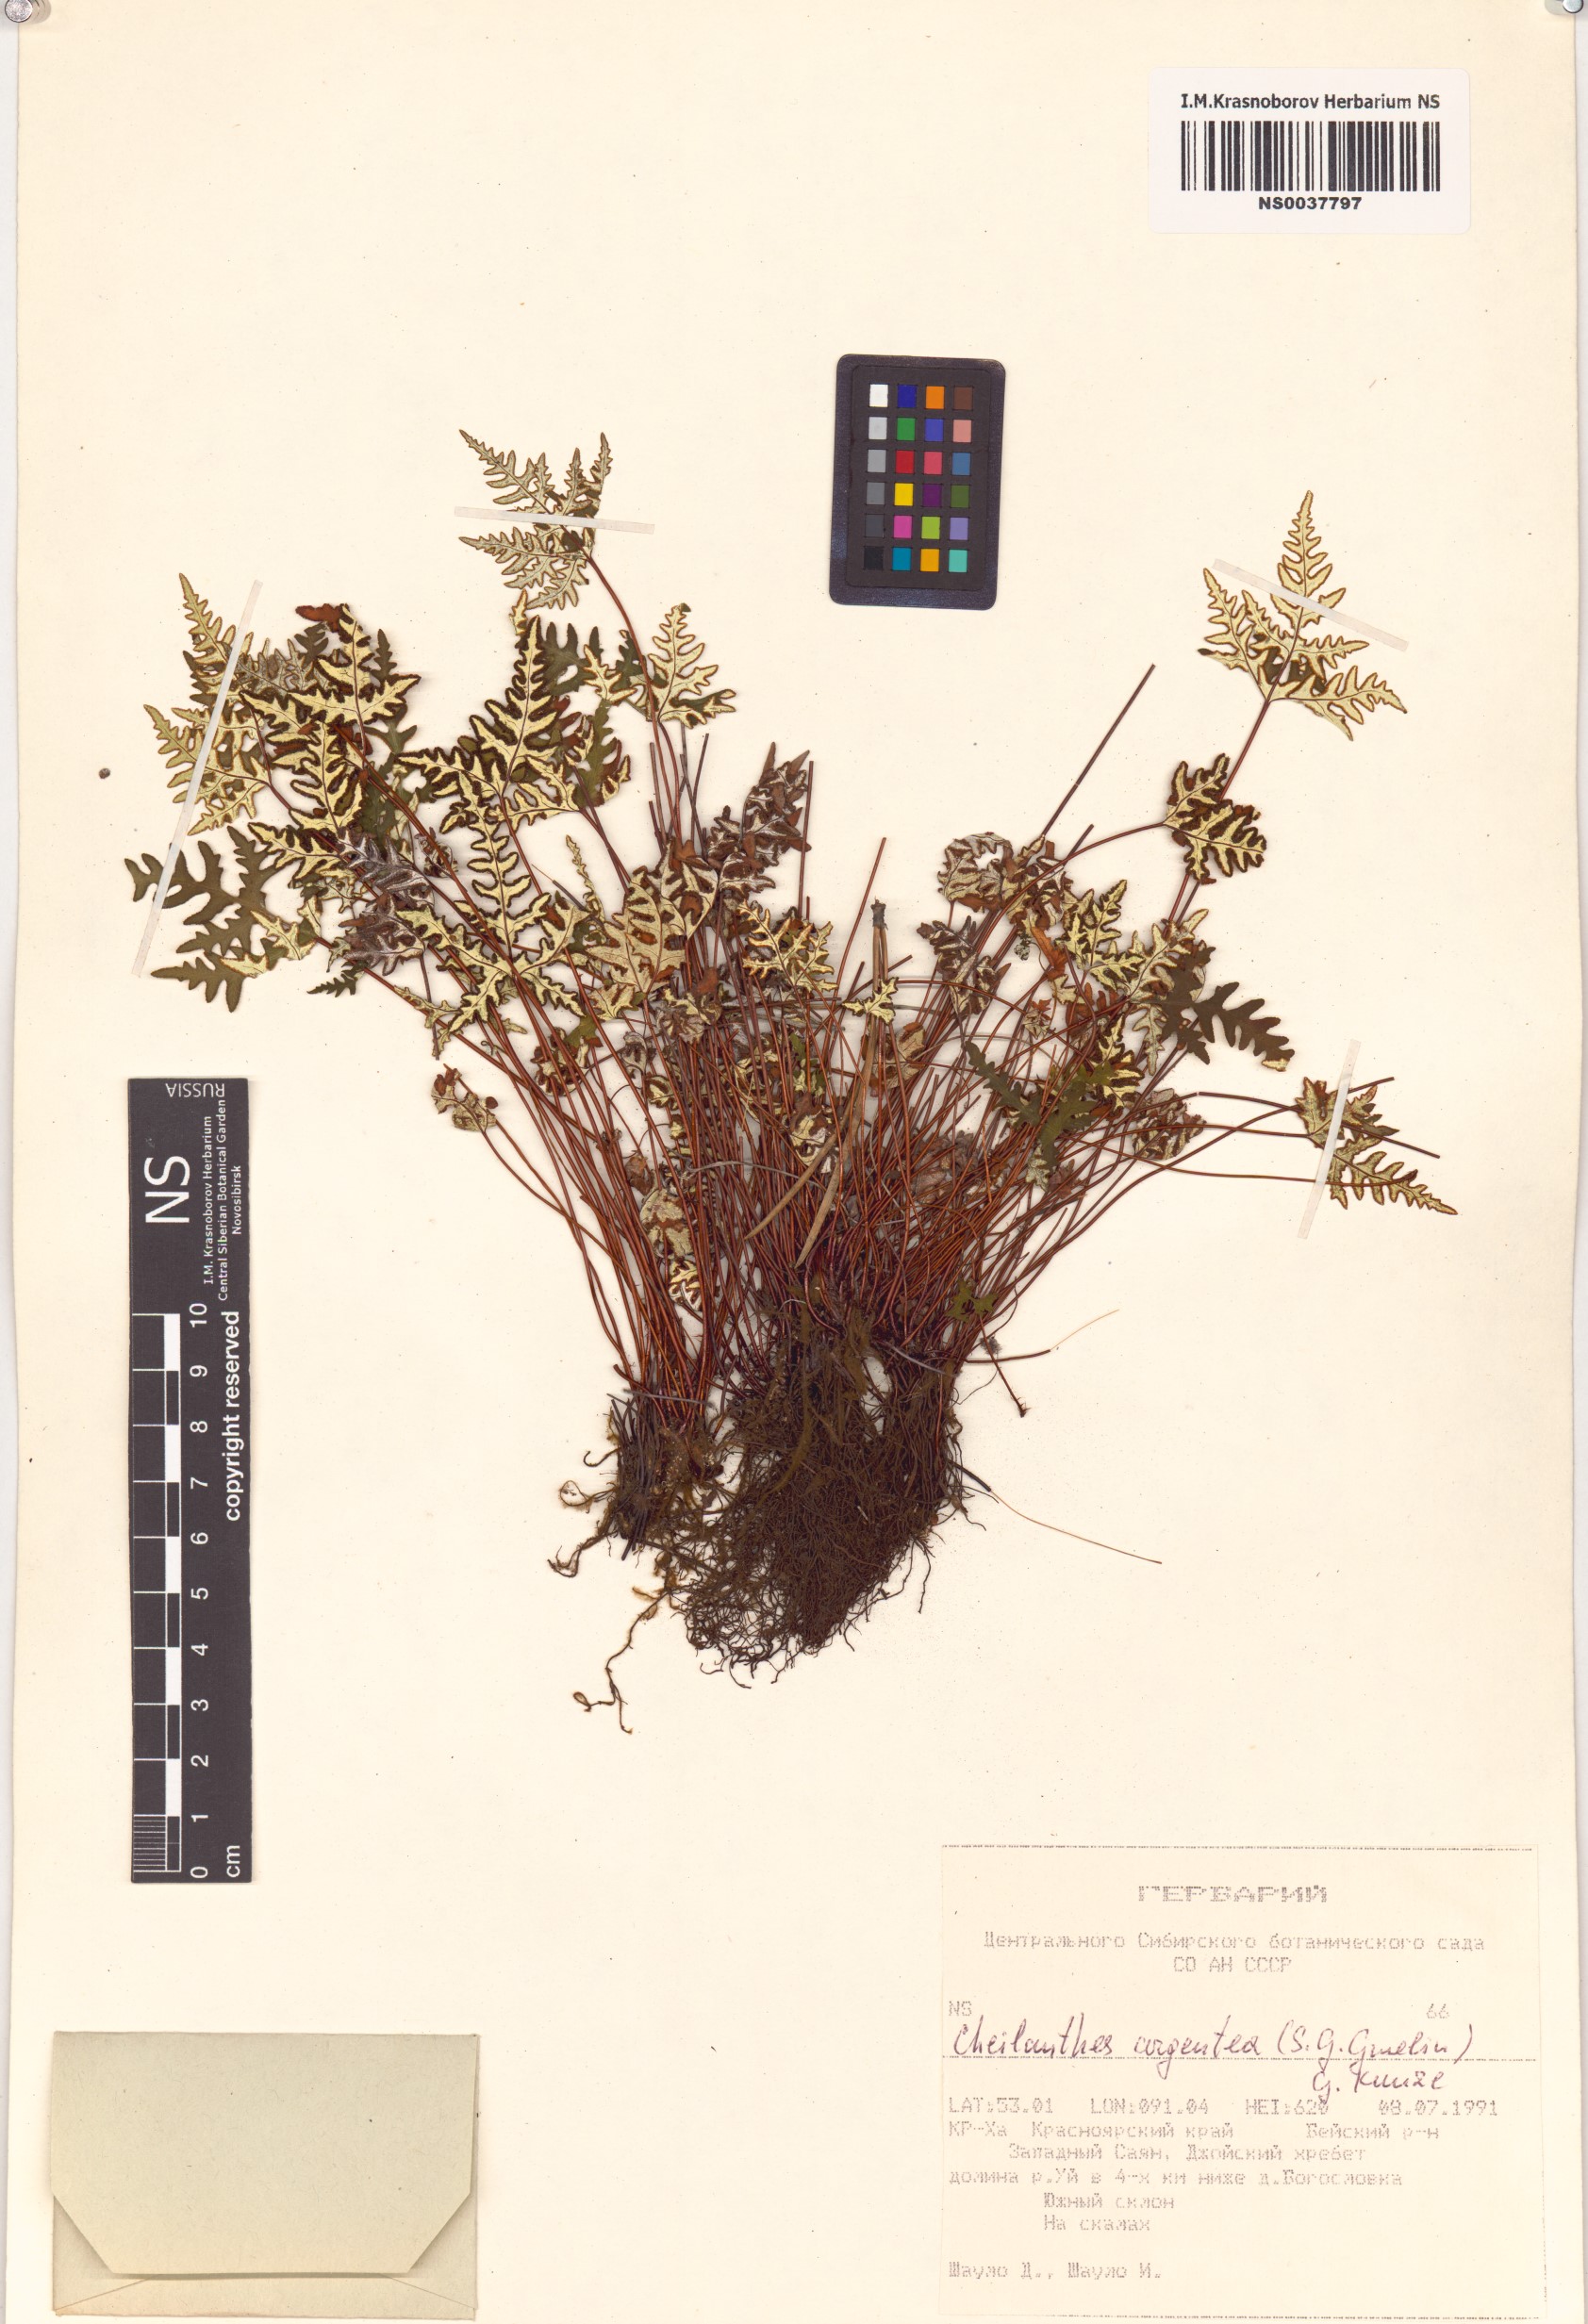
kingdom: Plantae
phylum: Tracheophyta
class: Polypodiopsida
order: Polypodiales
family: Pteridaceae
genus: Aleuritopteris
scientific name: Aleuritopteris argentea
